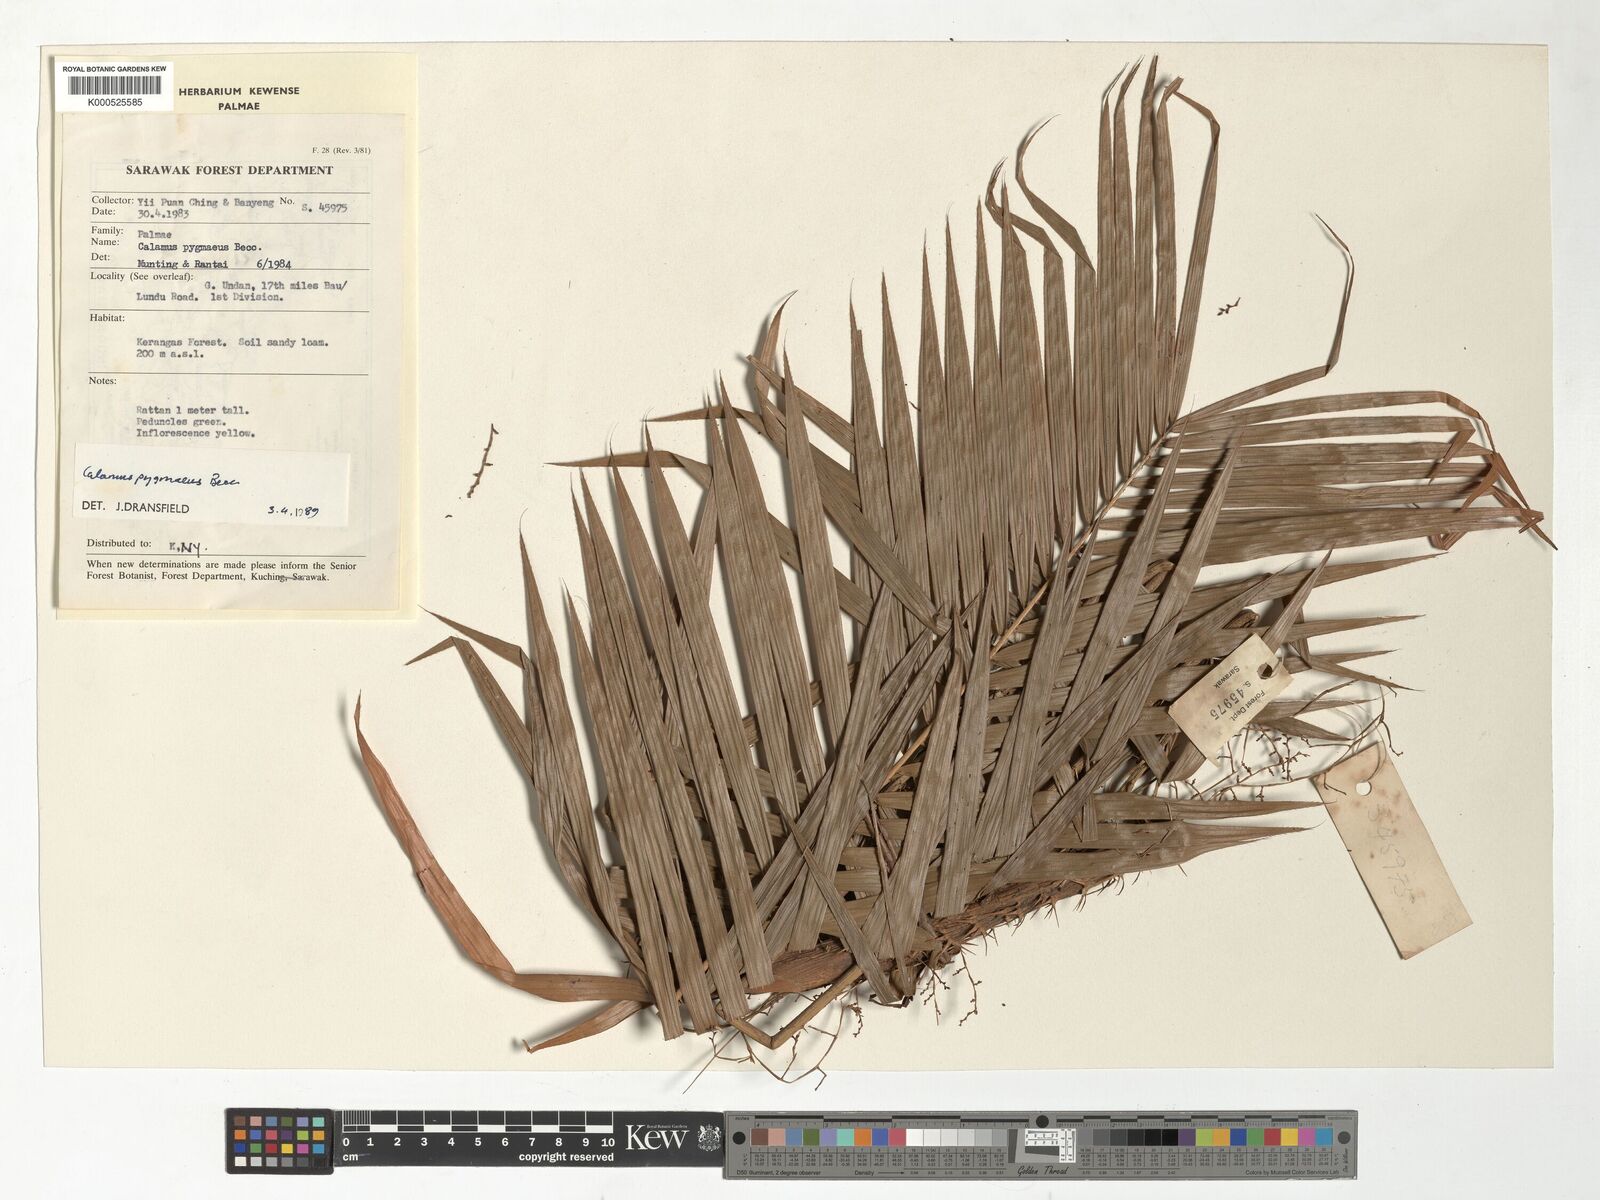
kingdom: Plantae
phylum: Tracheophyta
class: Liliopsida
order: Arecales
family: Arecaceae
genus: Calamus
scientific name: Calamus pygmaeus
